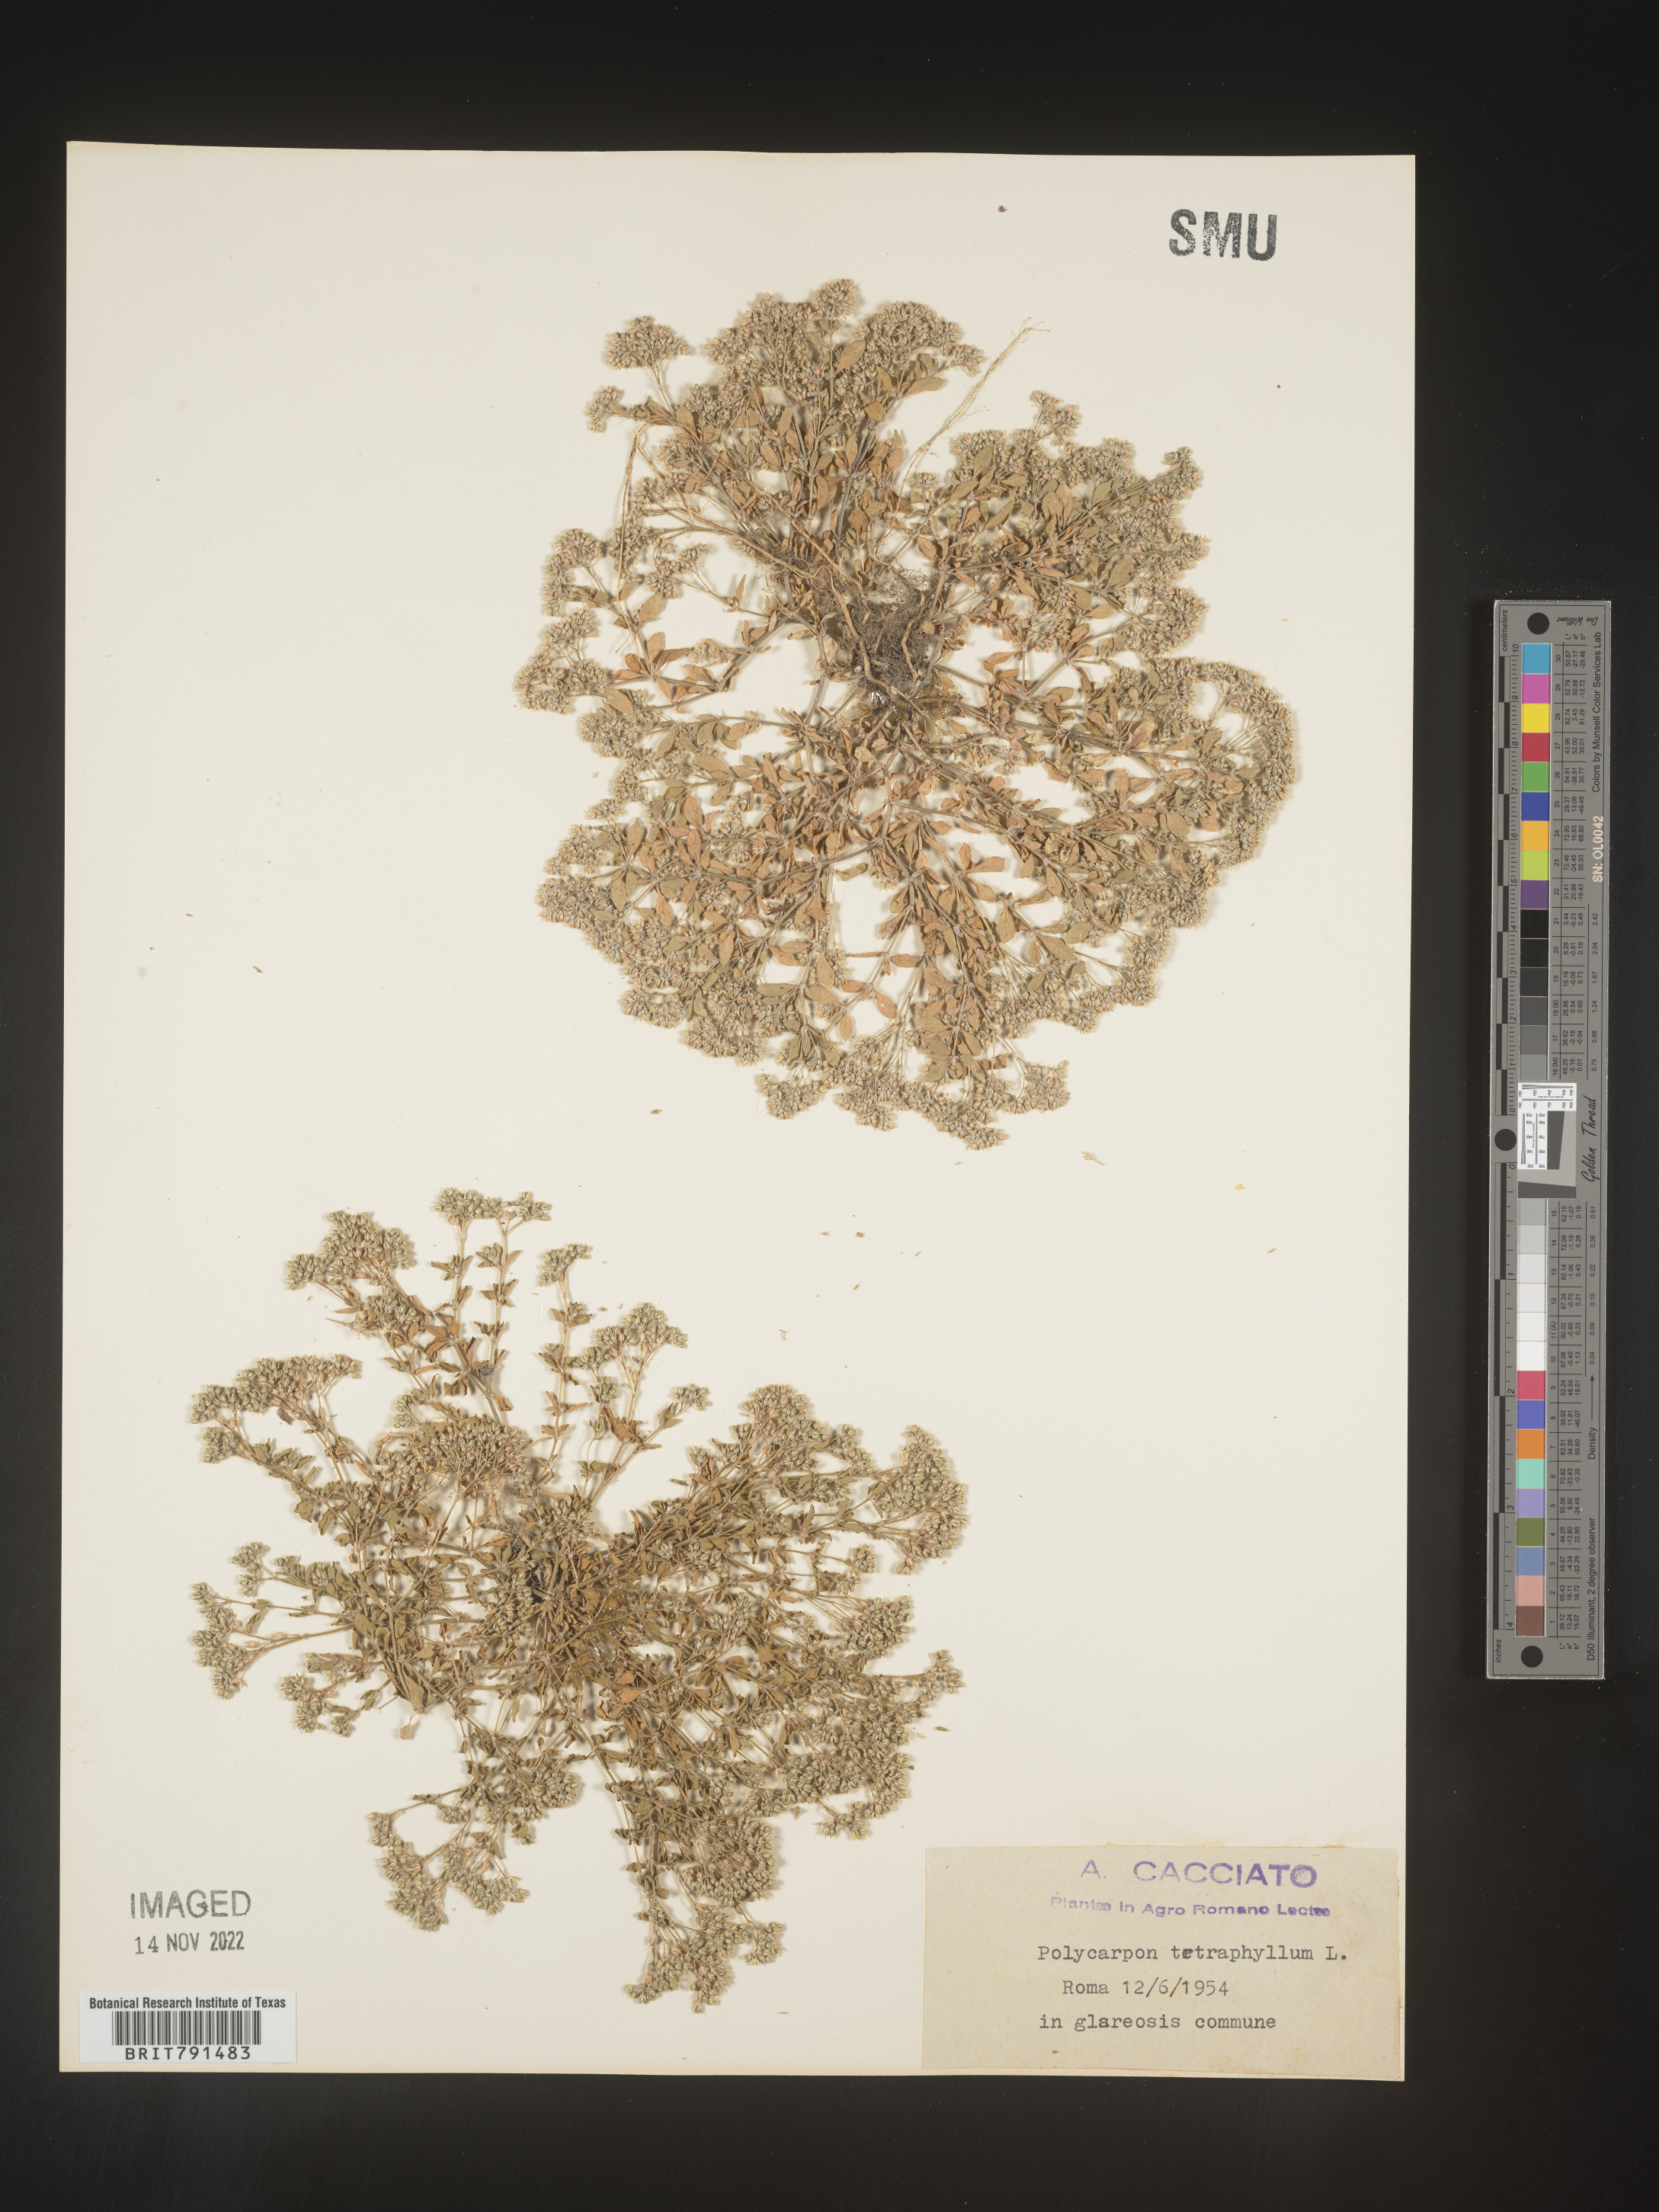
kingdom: Plantae
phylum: Tracheophyta
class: Magnoliopsida
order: Caryophyllales
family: Caryophyllaceae
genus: Polycarpon
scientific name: Polycarpon
